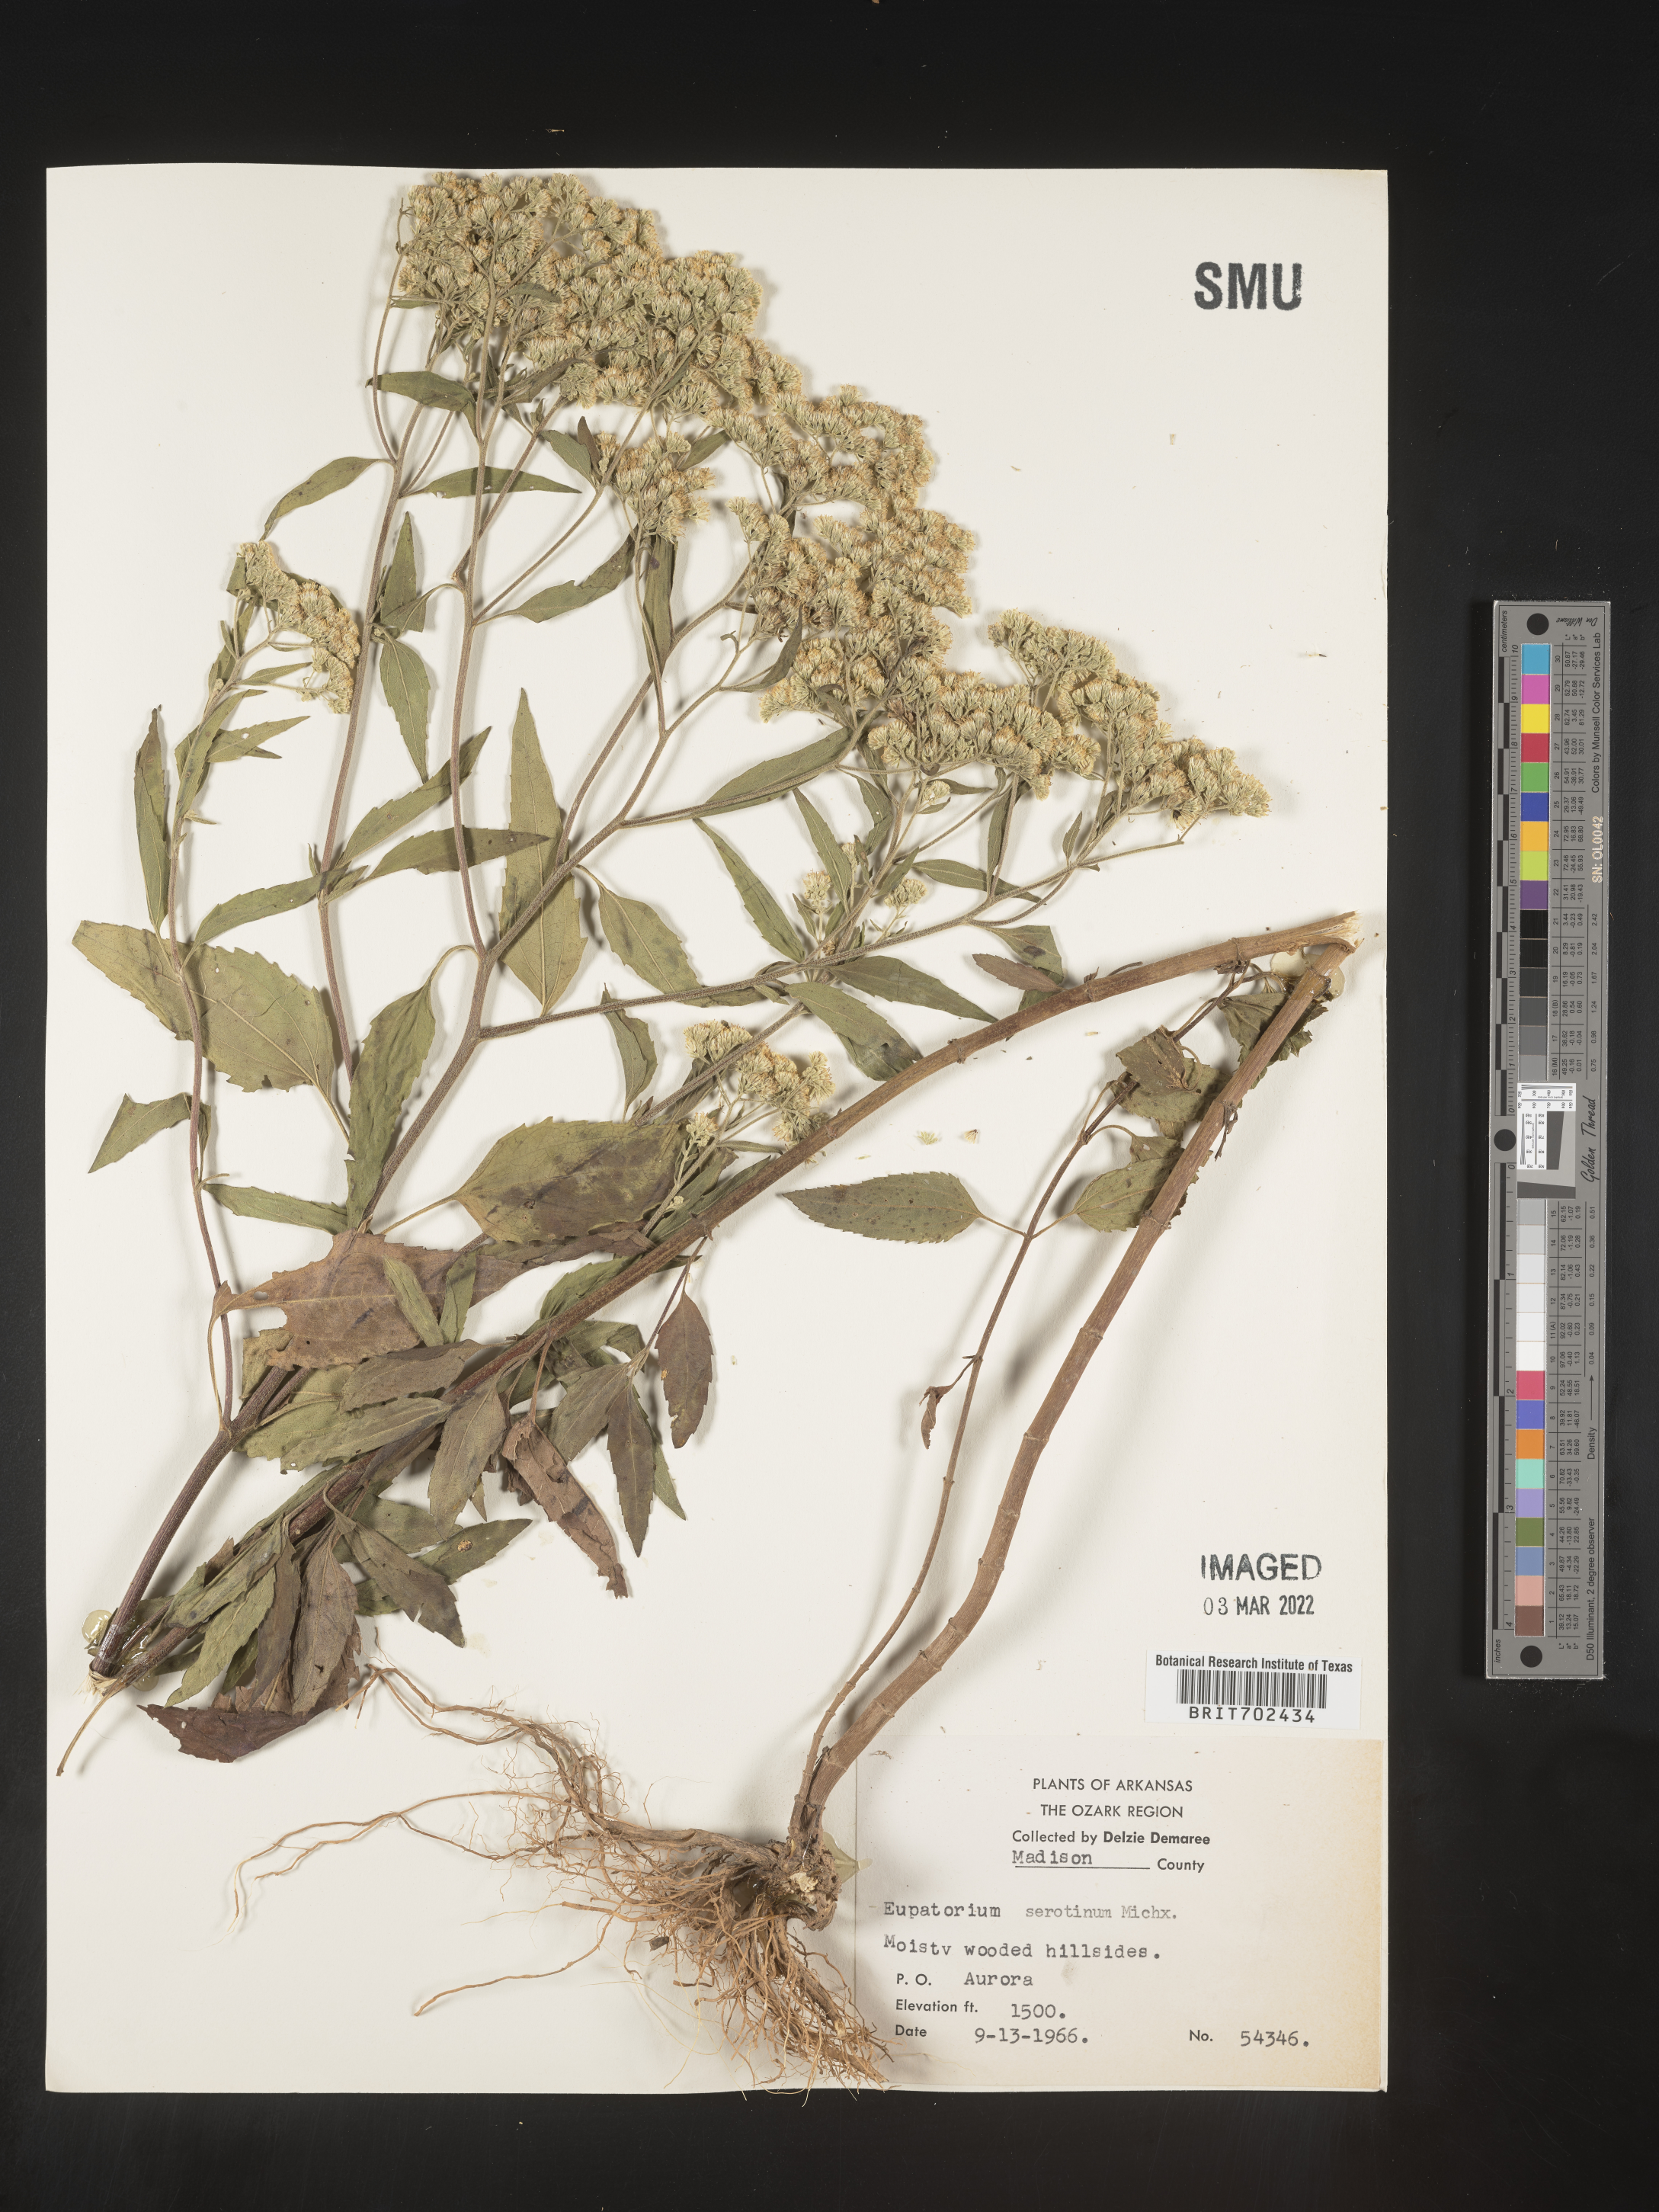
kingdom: Plantae
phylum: Tracheophyta
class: Magnoliopsida
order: Asterales
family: Asteraceae
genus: Eupatorium
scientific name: Eupatorium serotinum
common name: Late boneset
